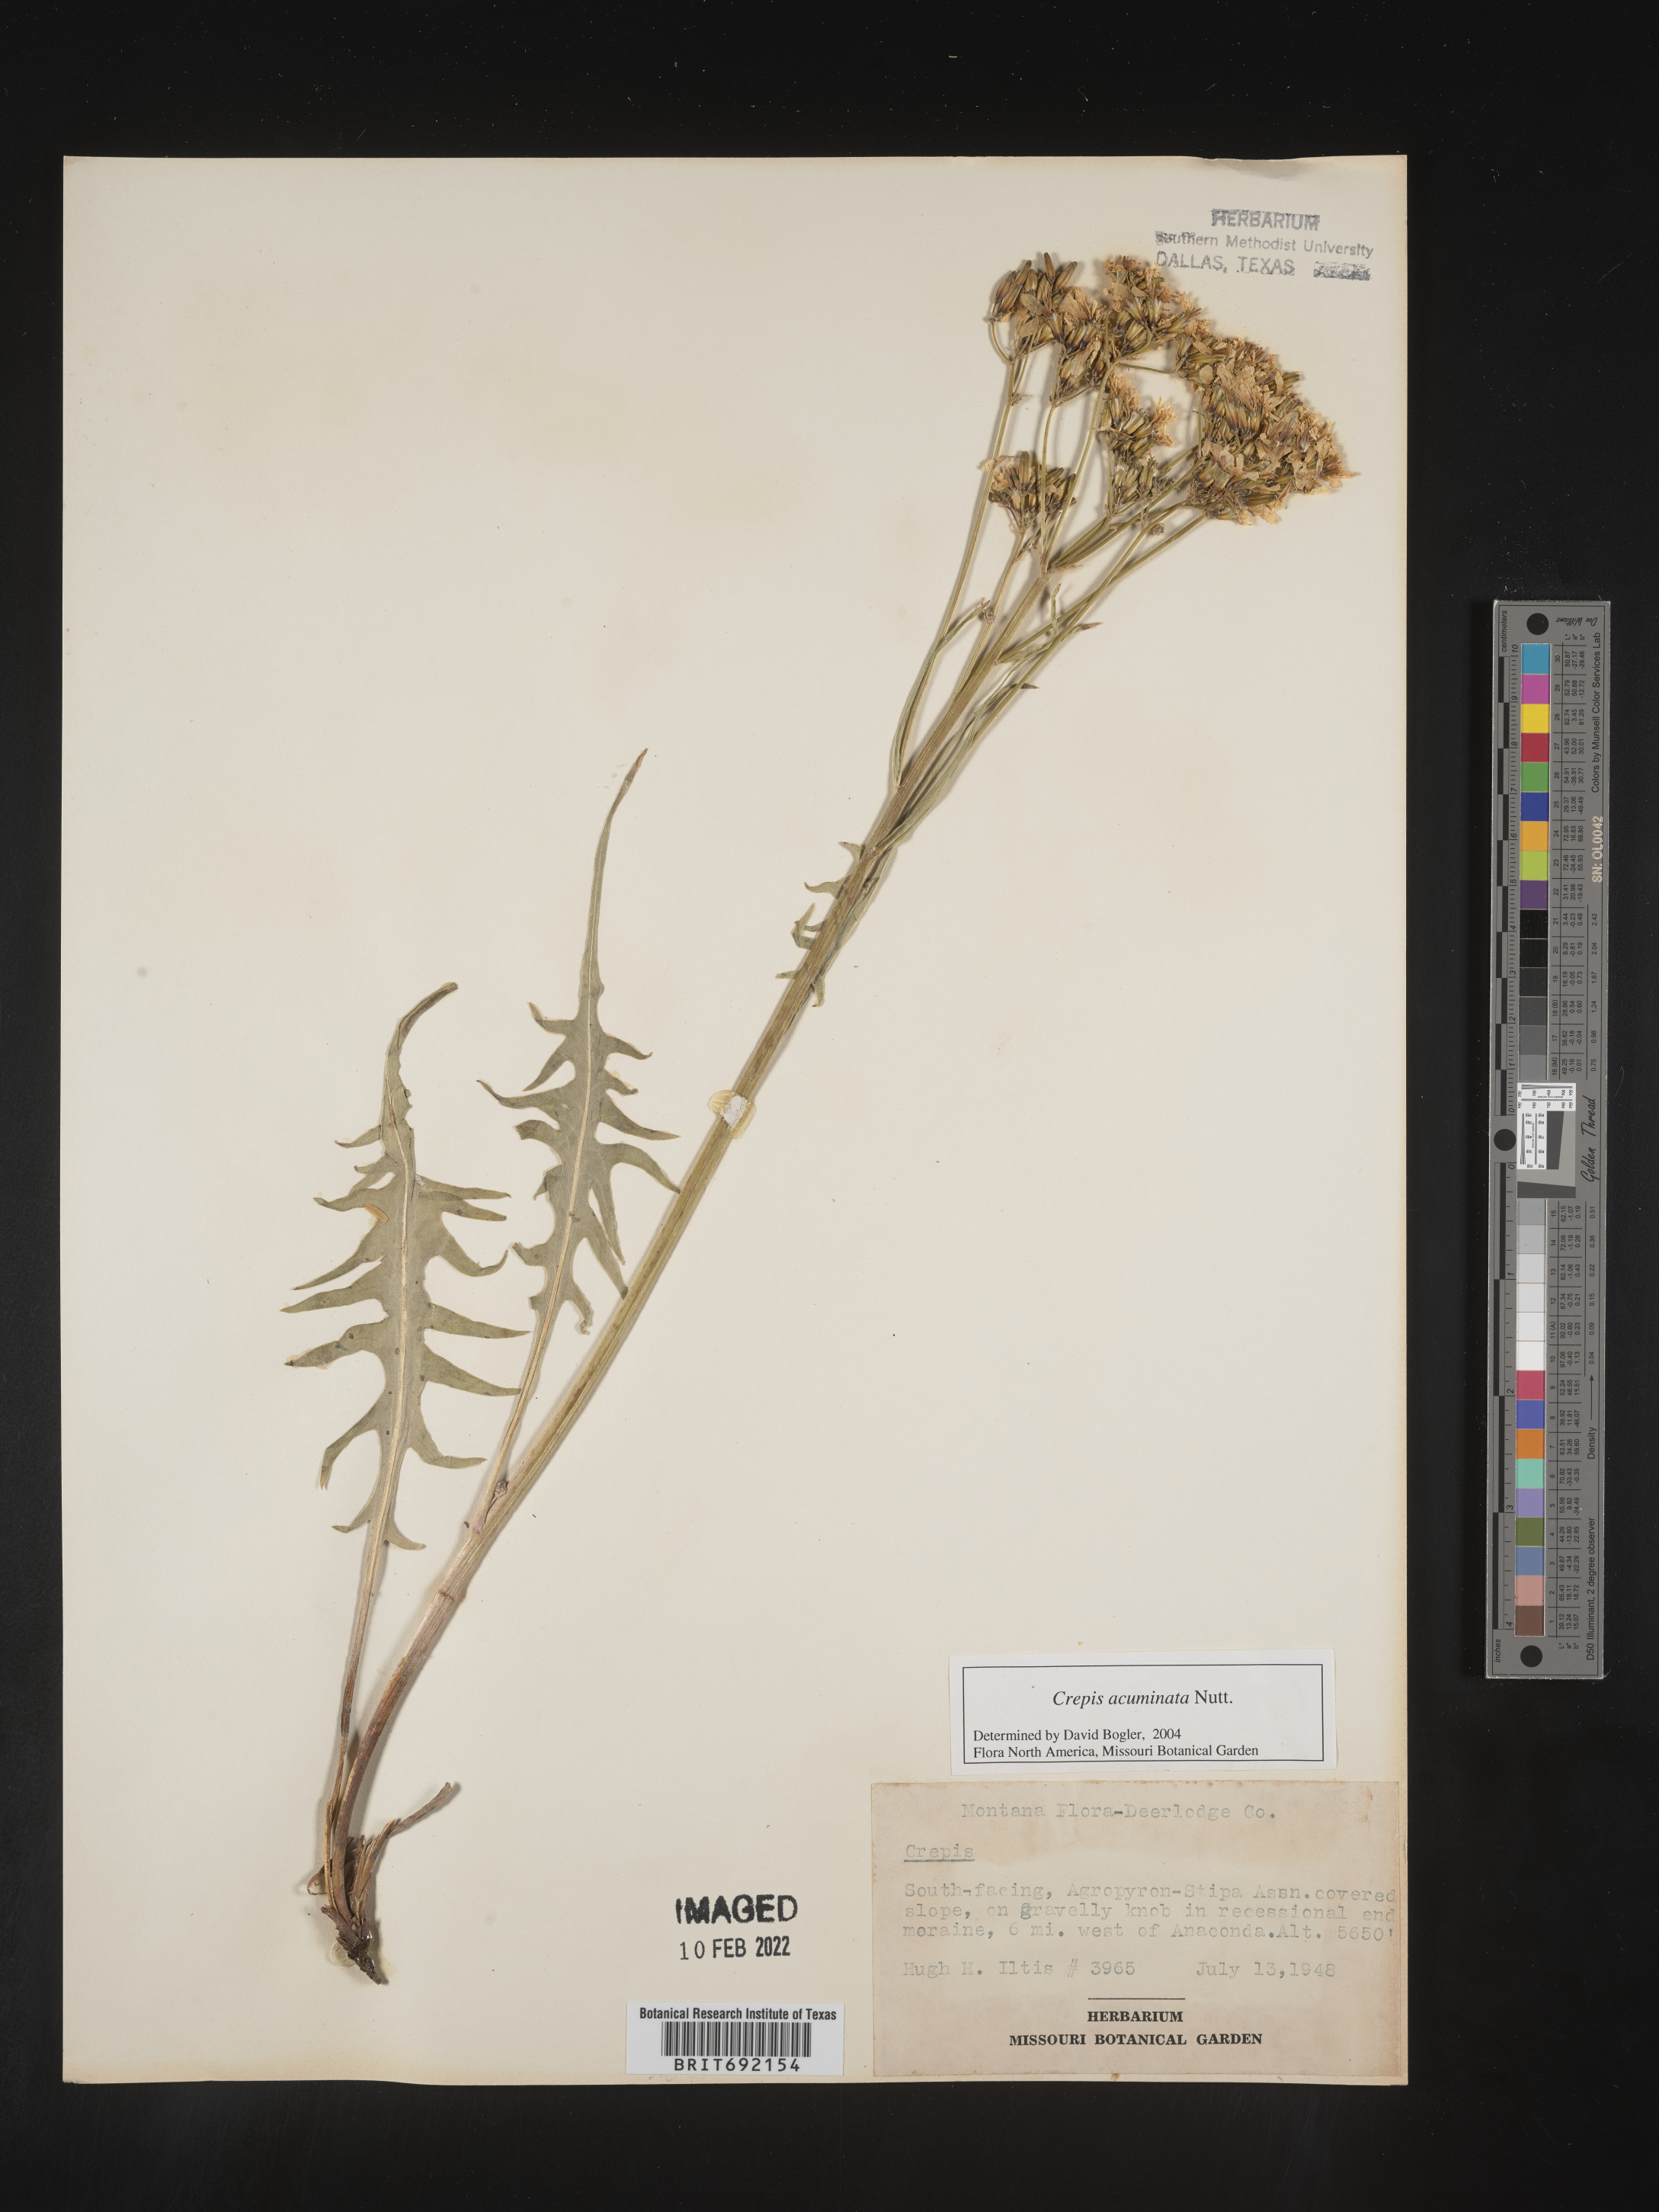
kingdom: Plantae
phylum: Tracheophyta
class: Magnoliopsida
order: Asterales
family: Asteraceae
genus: Crepis
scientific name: Crepis acuminata
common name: Longleaf hawk's-beard
